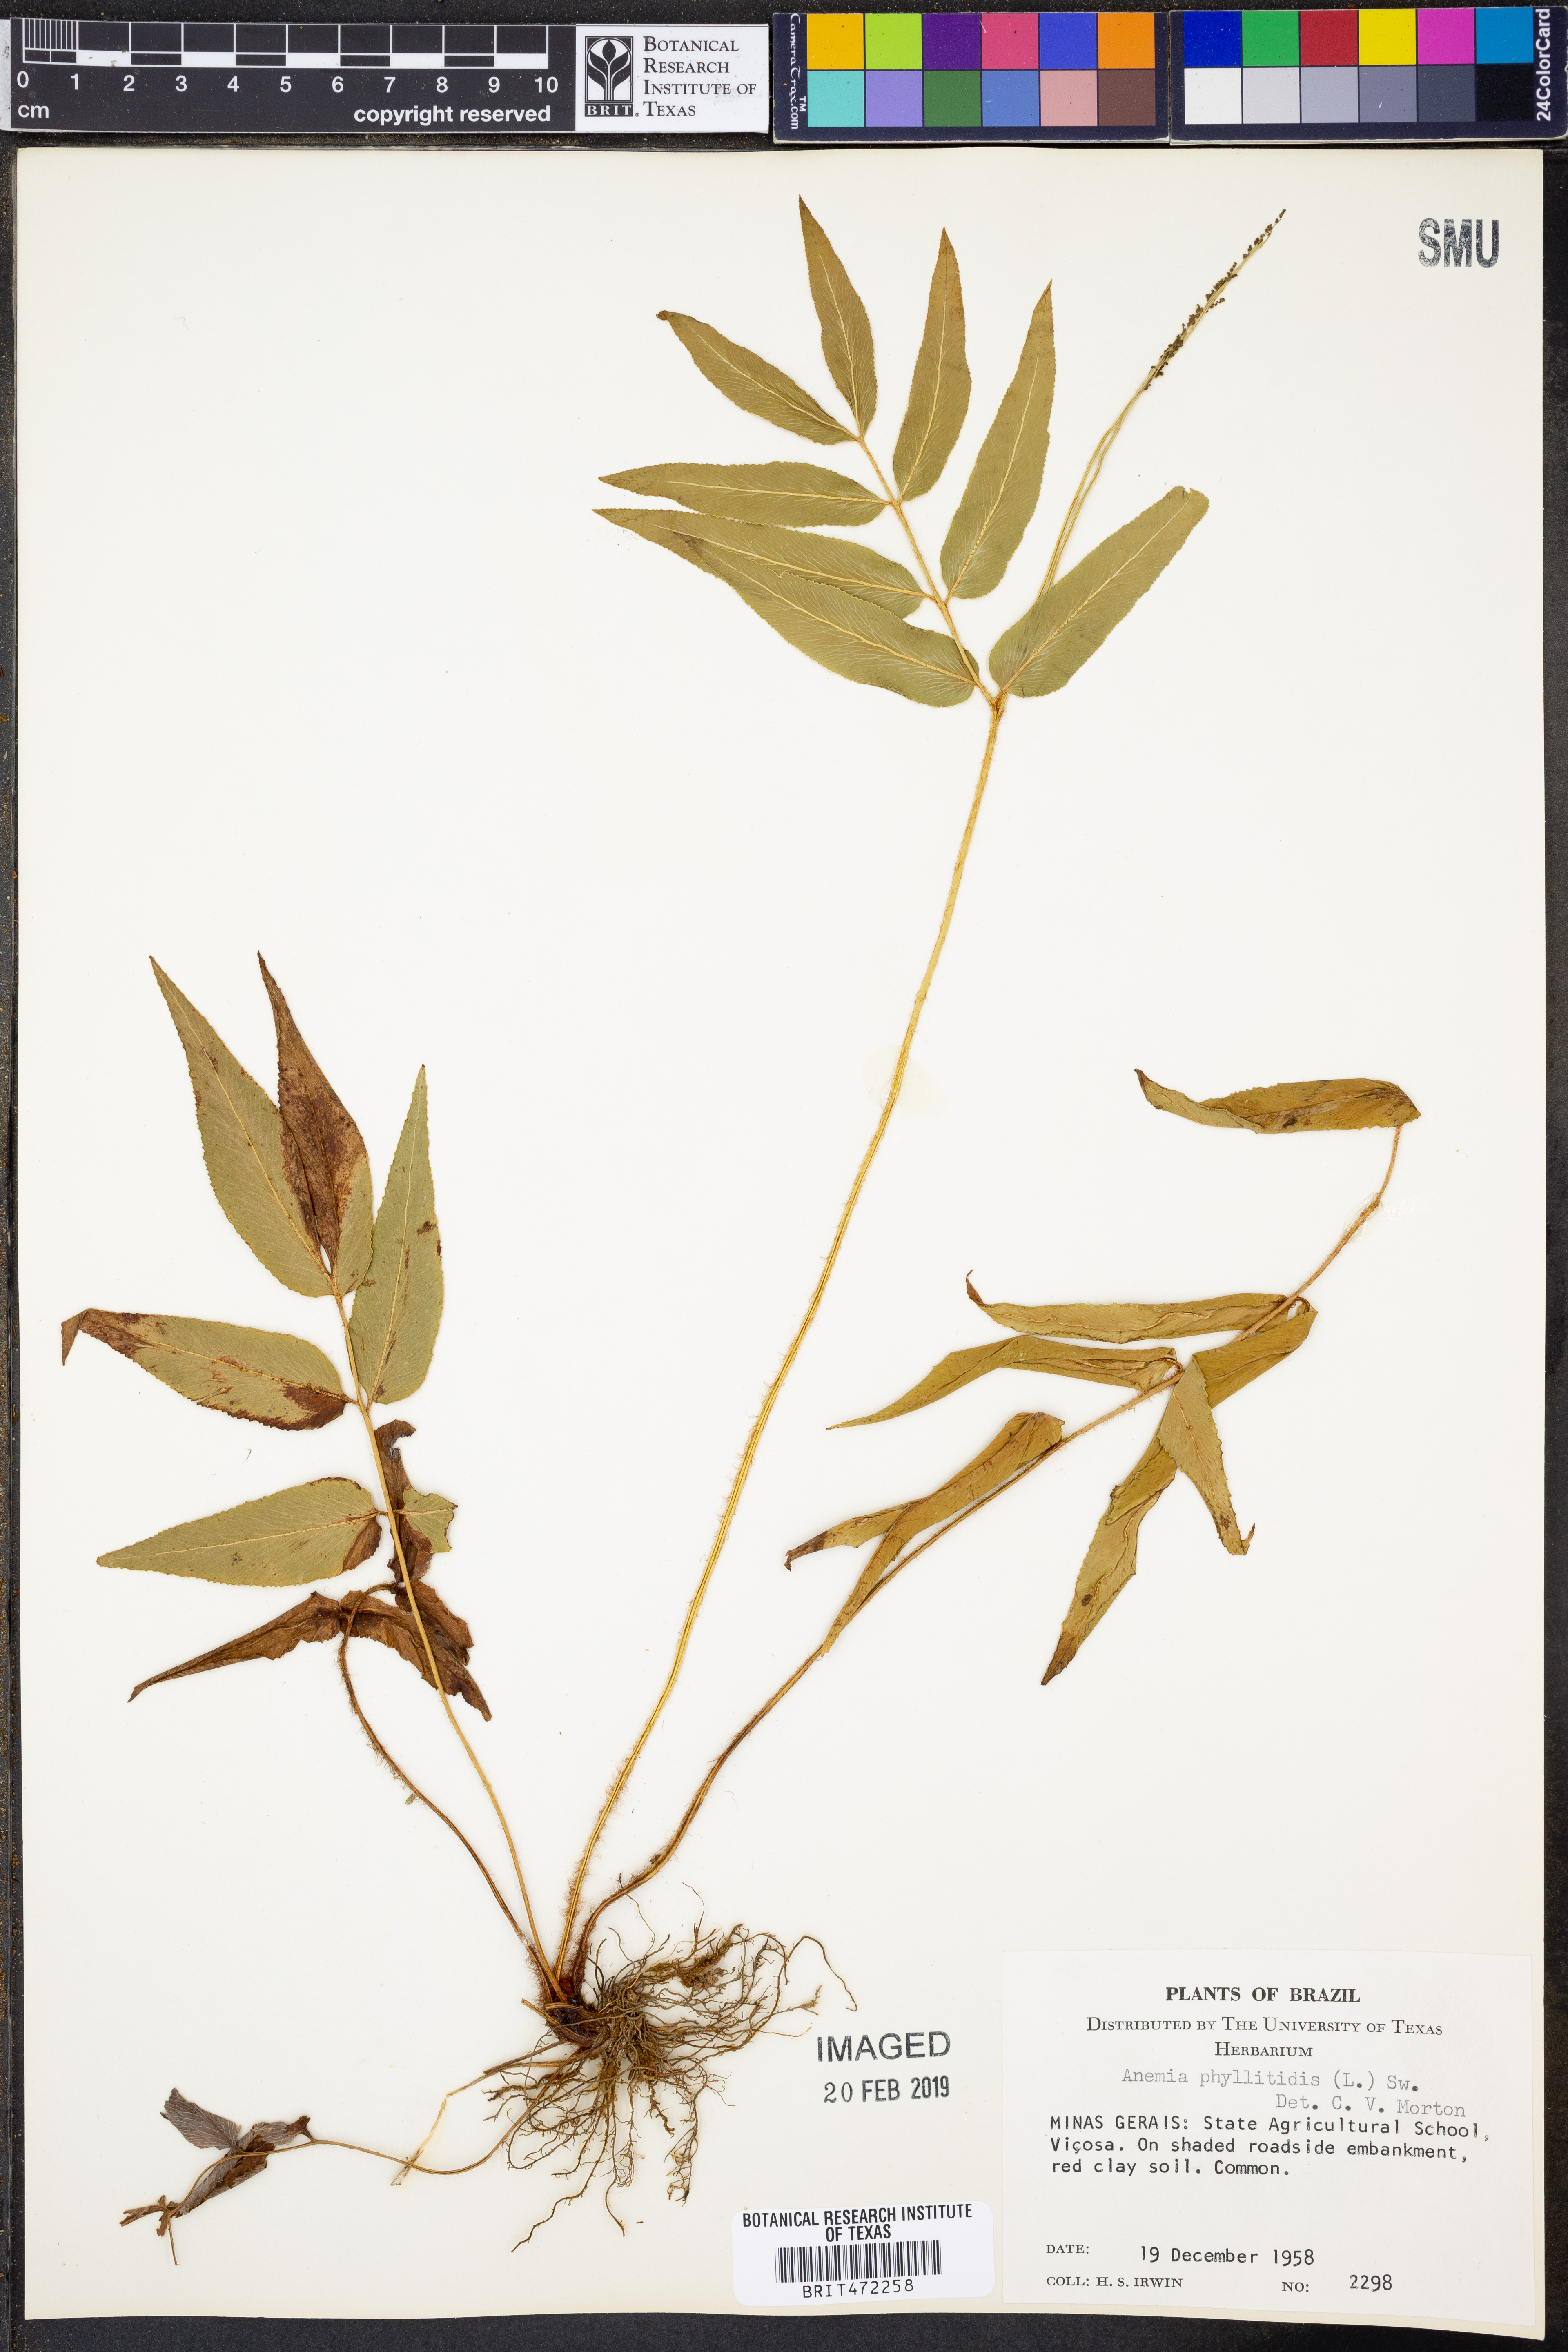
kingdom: Plantae
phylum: Tracheophyta
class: Polypodiopsida
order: Schizaeales
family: Anemiaceae
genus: Anemia
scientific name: Anemia phyllitidis
